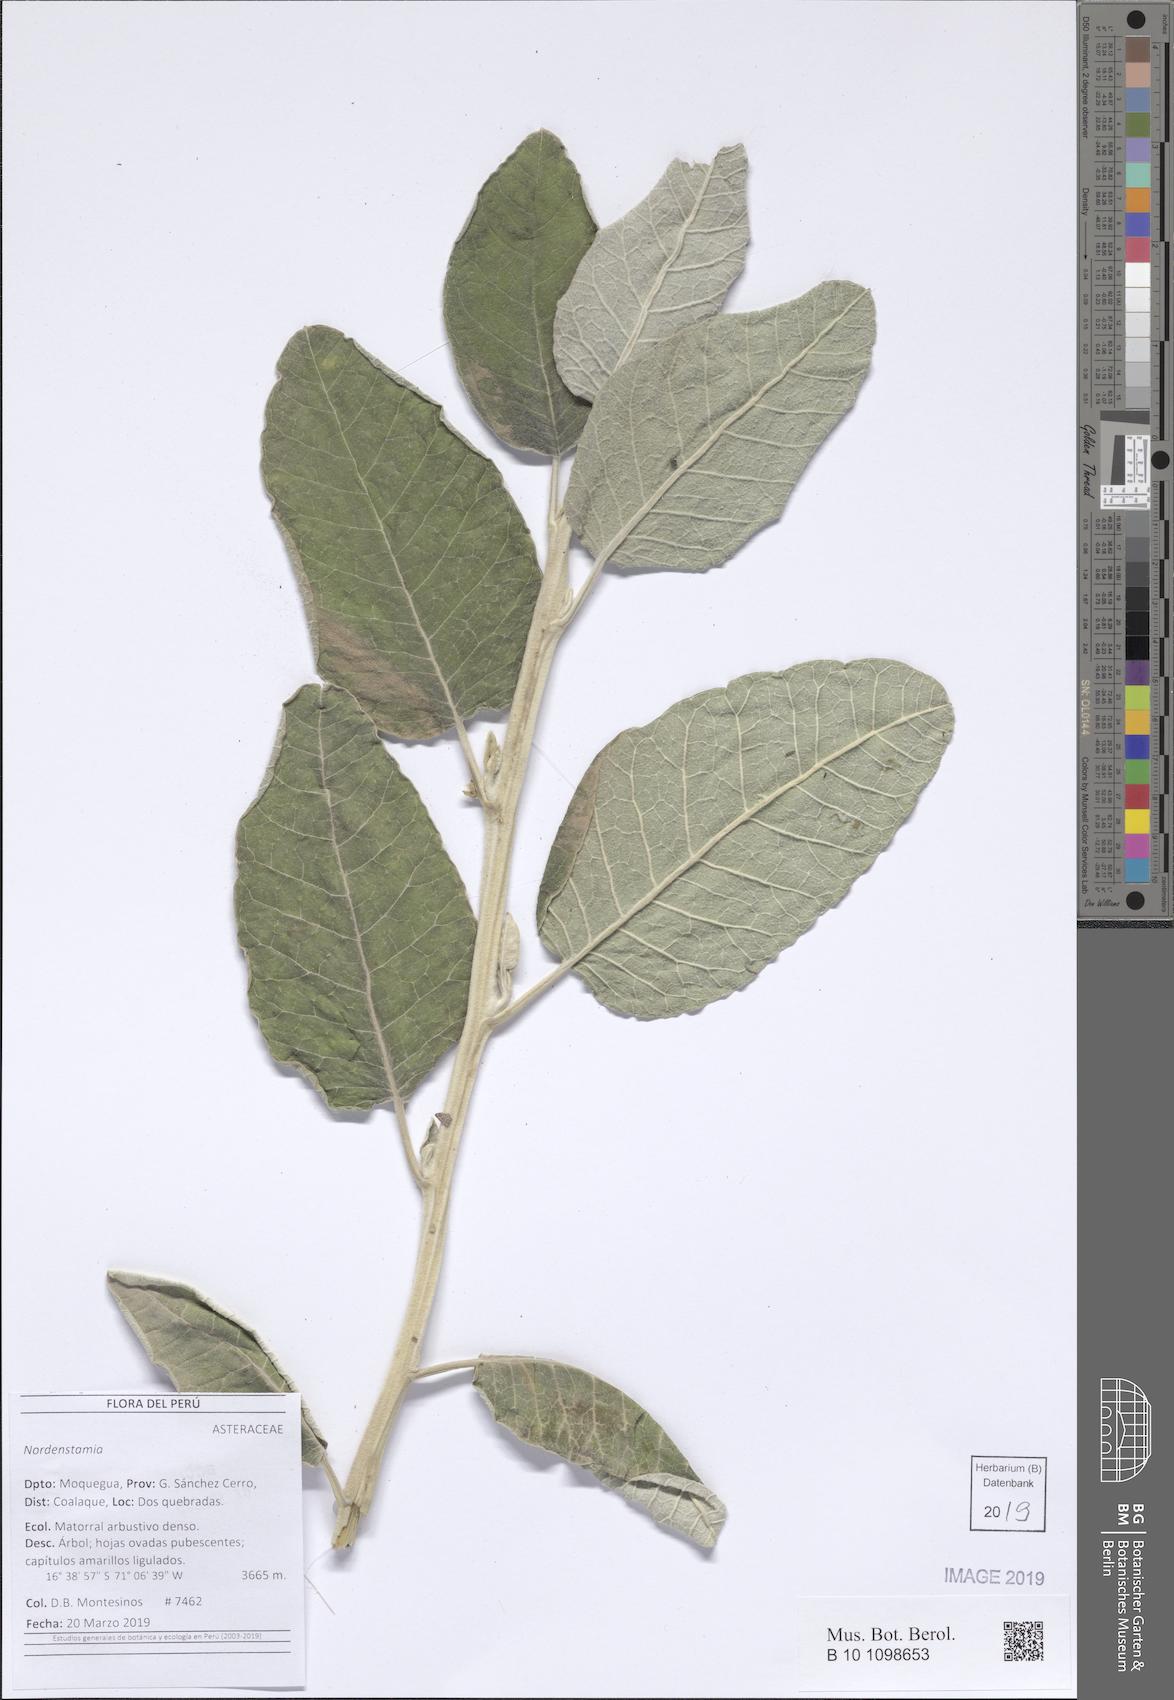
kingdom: Plantae
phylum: Tracheophyta
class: Magnoliopsida
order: Asterales
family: Asteraceae
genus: Nordenstamia
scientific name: Nordenstamia
